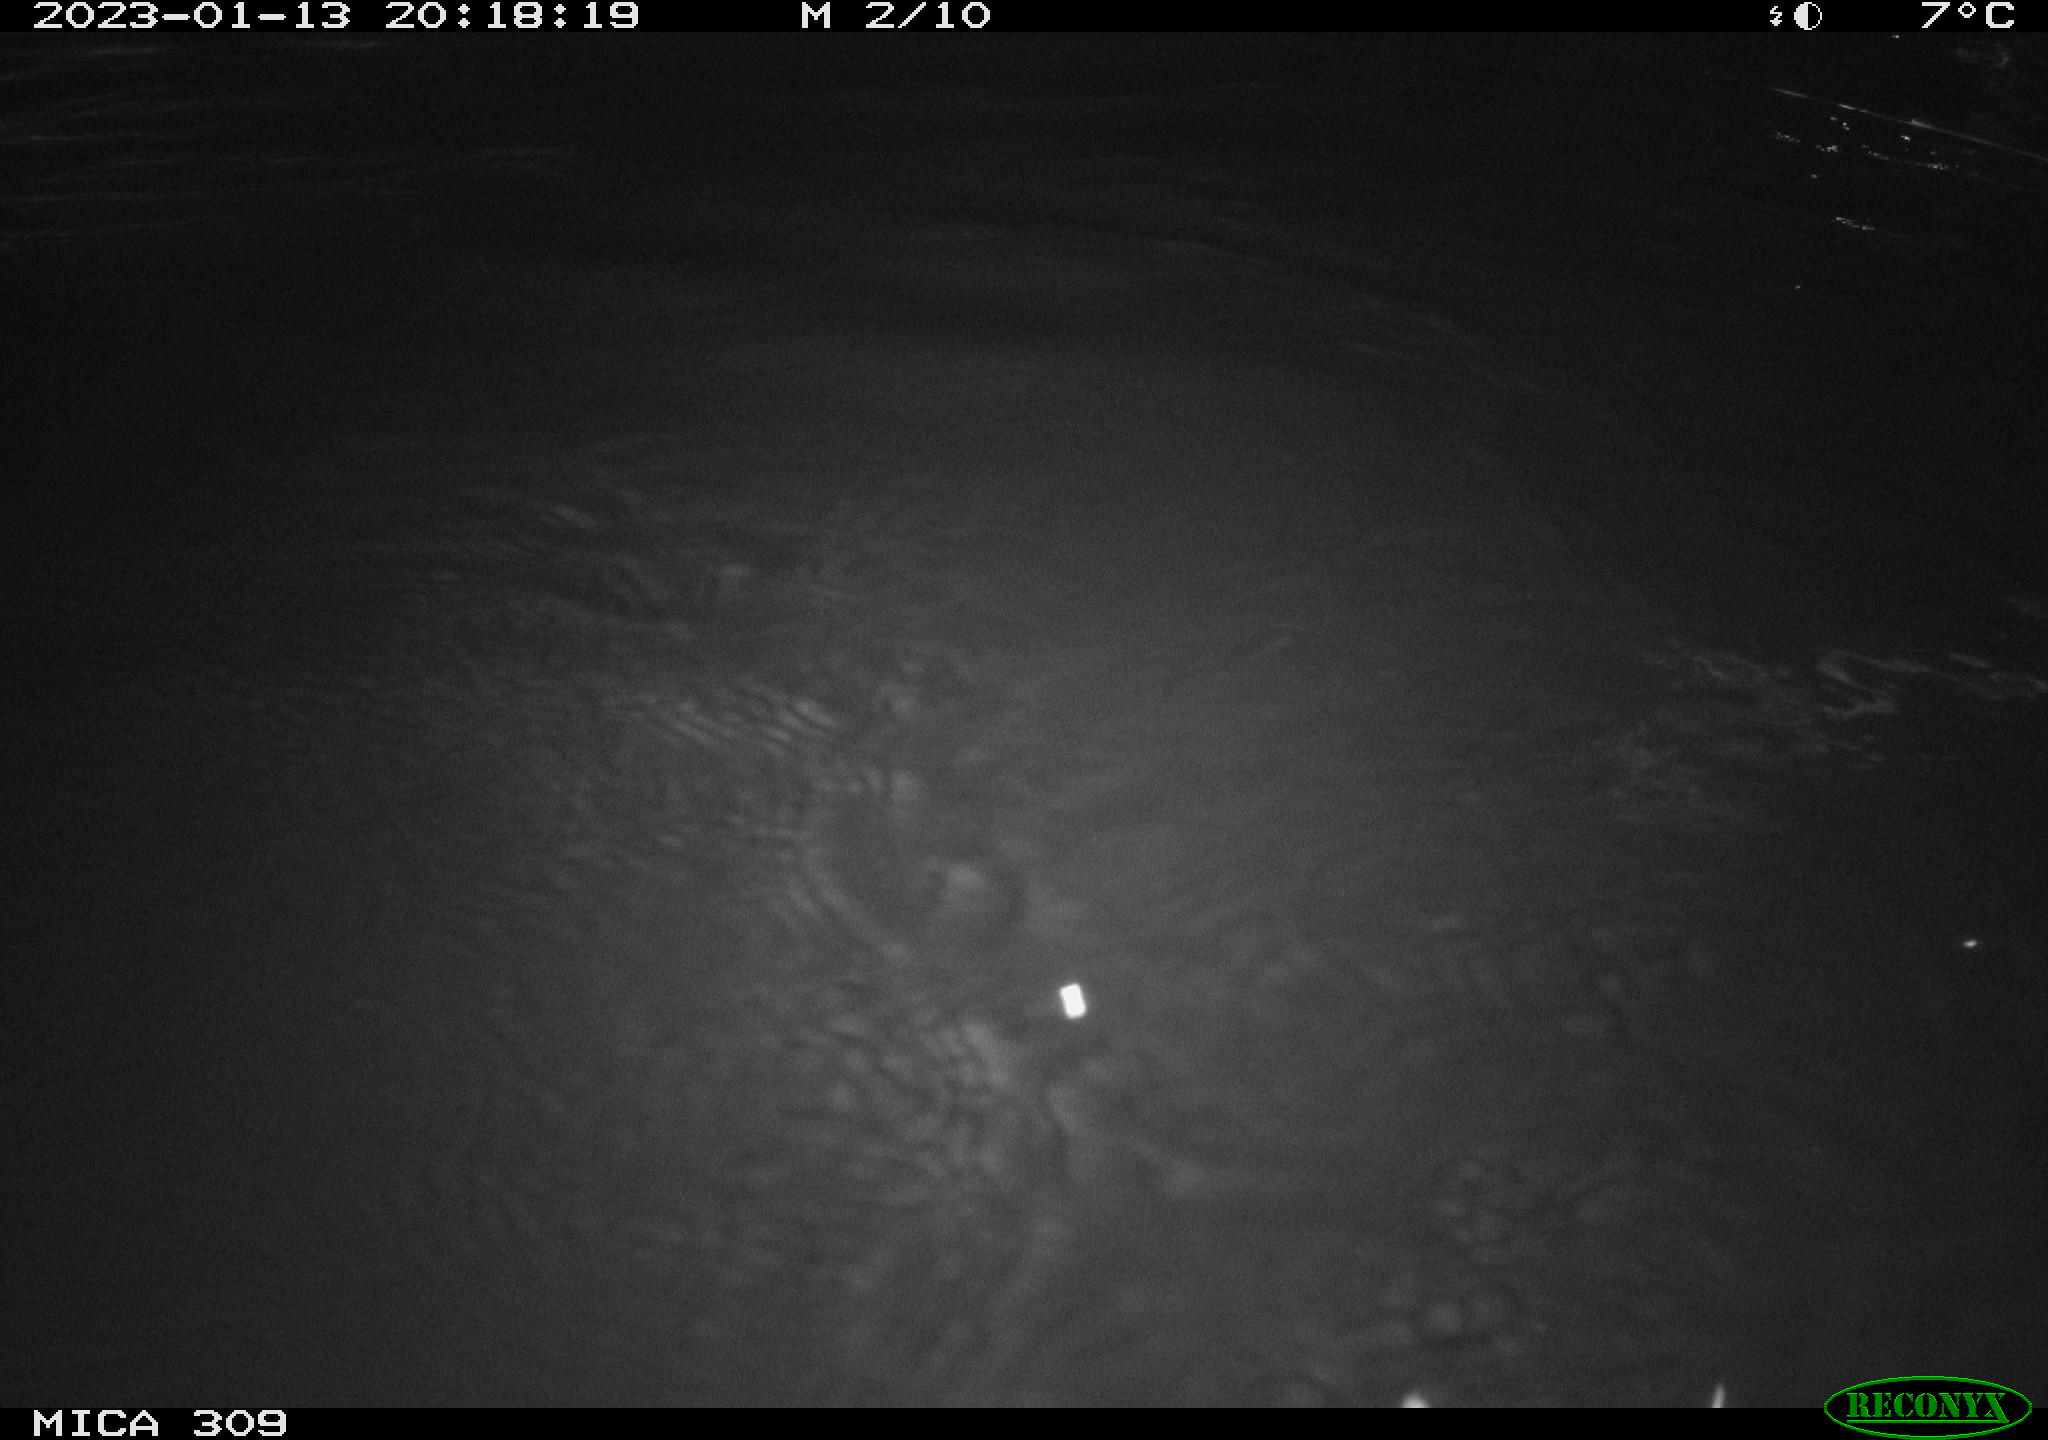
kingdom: Animalia
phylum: Chordata
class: Mammalia
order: Rodentia
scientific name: Rodentia
